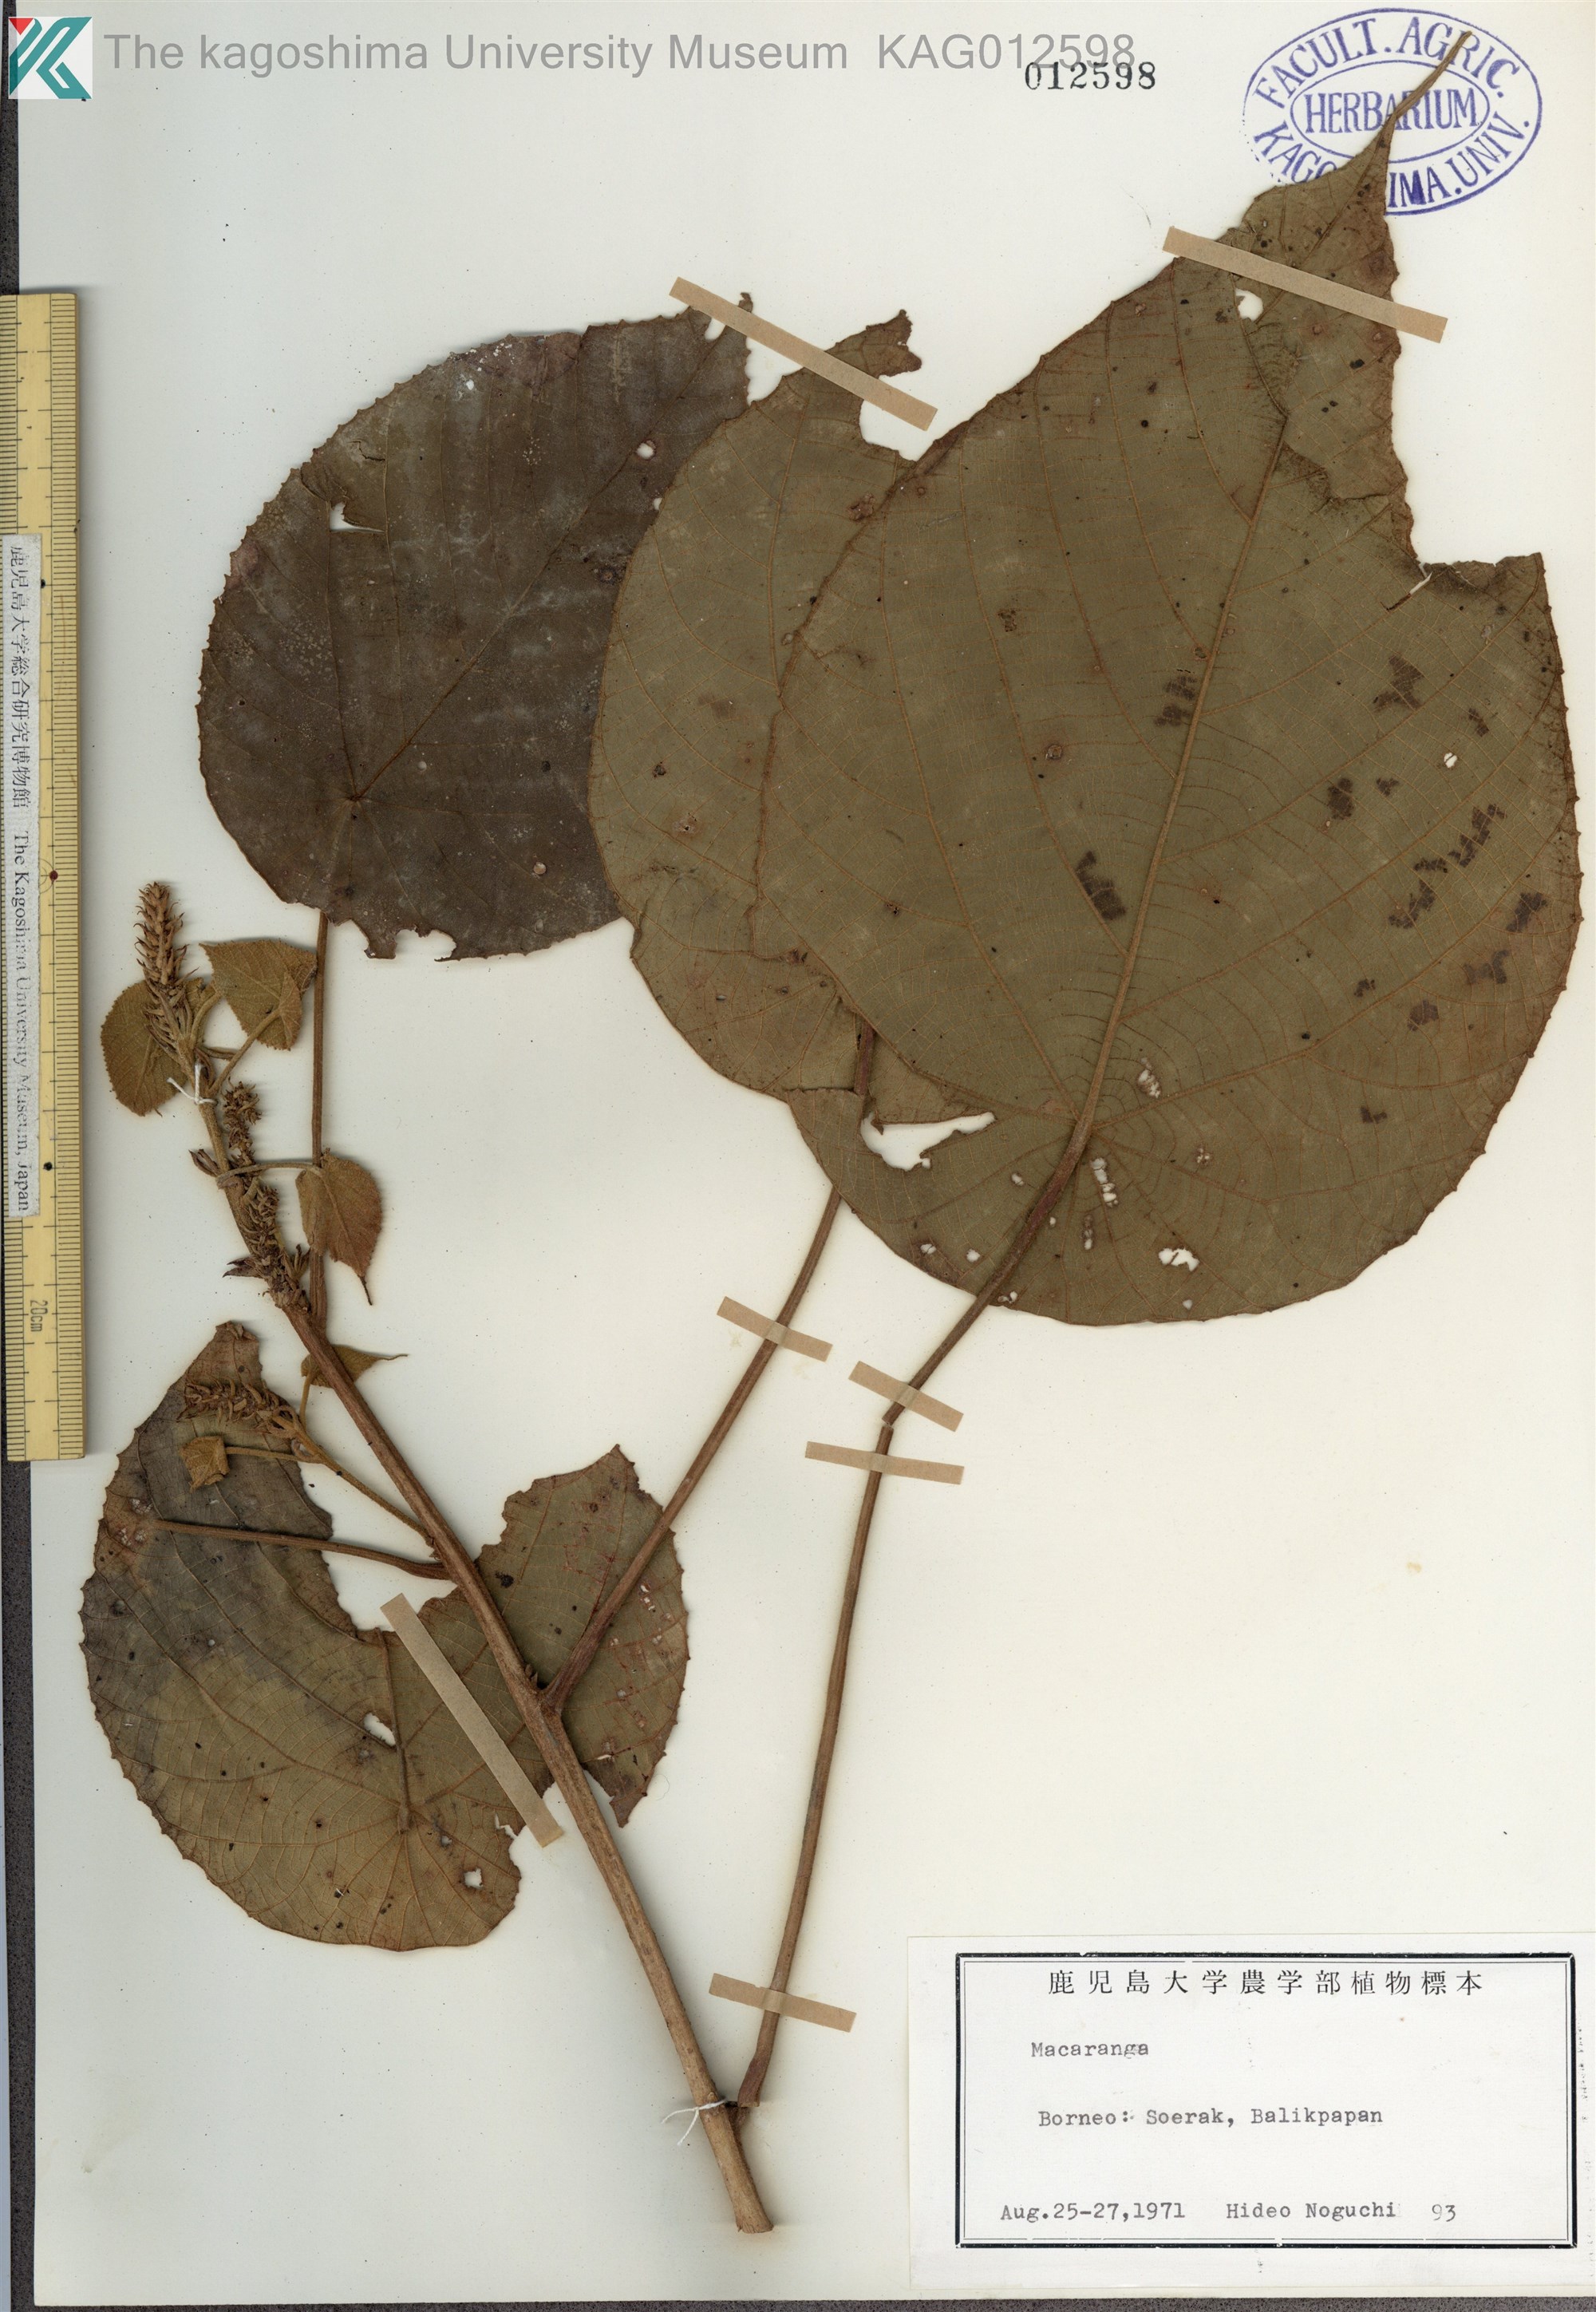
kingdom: Plantae
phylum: Tracheophyta
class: Magnoliopsida
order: Malpighiales
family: Euphorbiaceae
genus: Macaranga
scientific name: Macaranga tanarius
